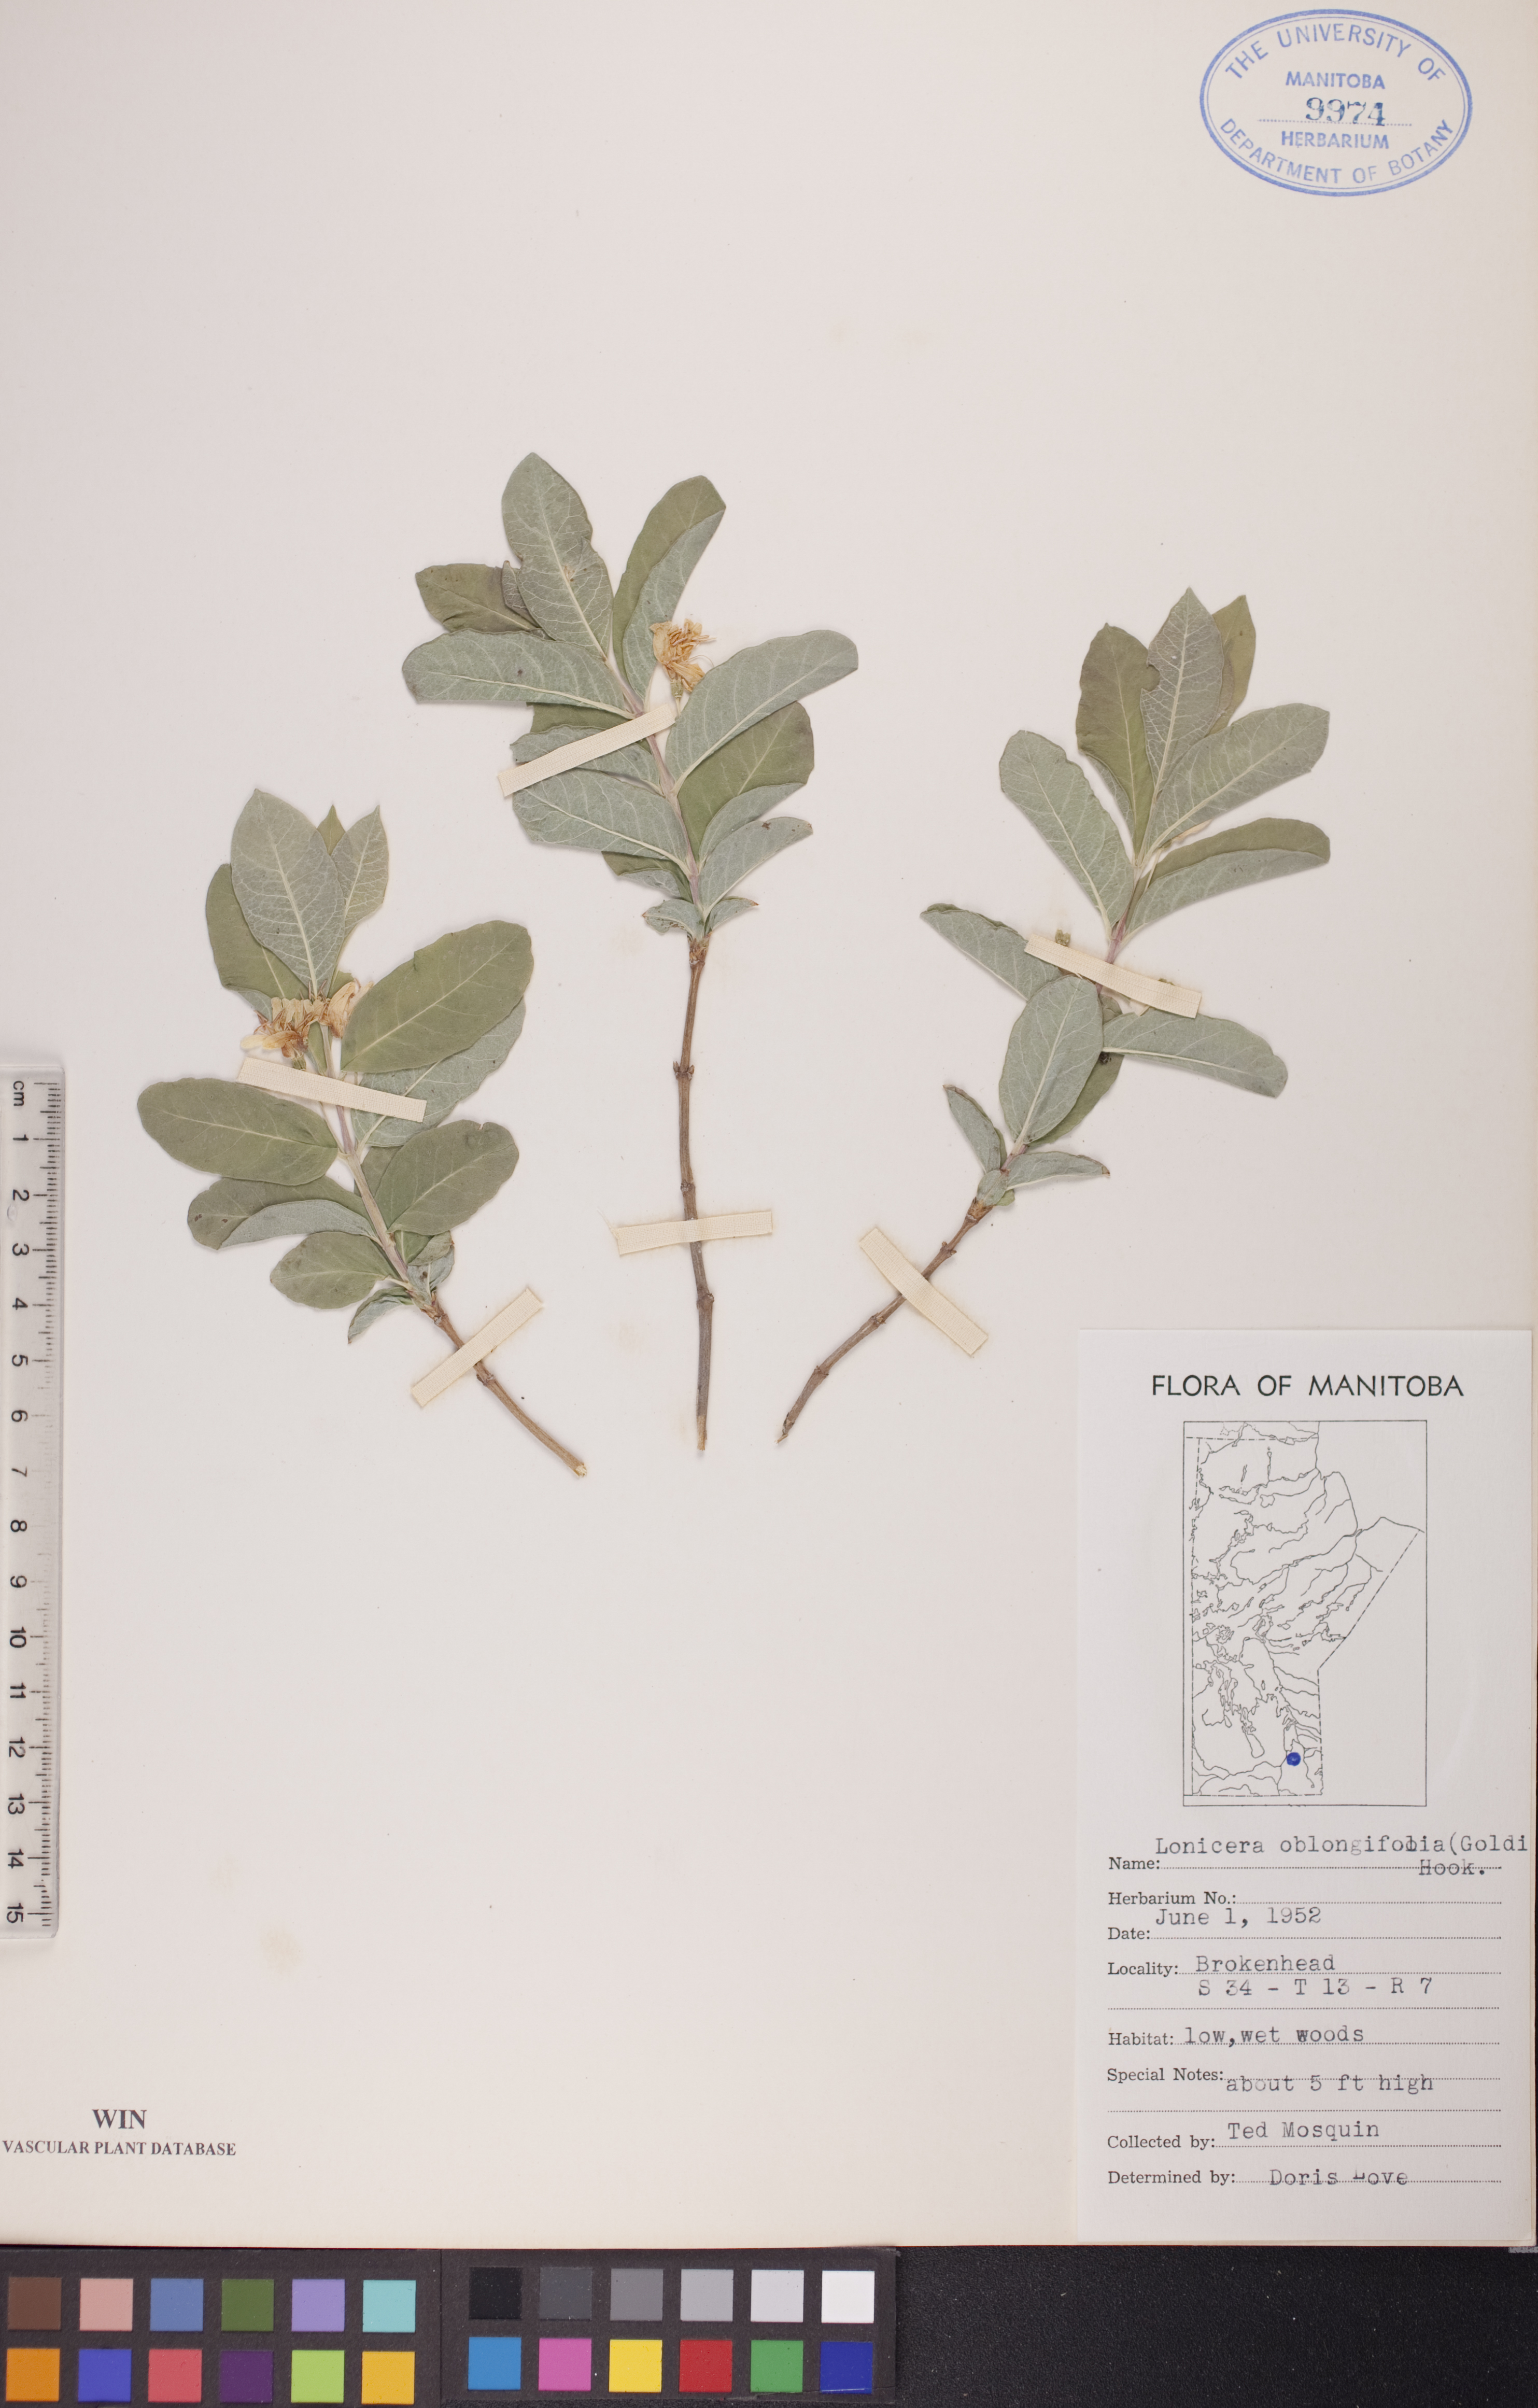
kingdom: Plantae
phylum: Tracheophyta
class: Magnoliopsida
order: Dipsacales
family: Caprifoliaceae
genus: Lonicera
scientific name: Lonicera oblongifolia
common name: Swamp fly honeysuckle
